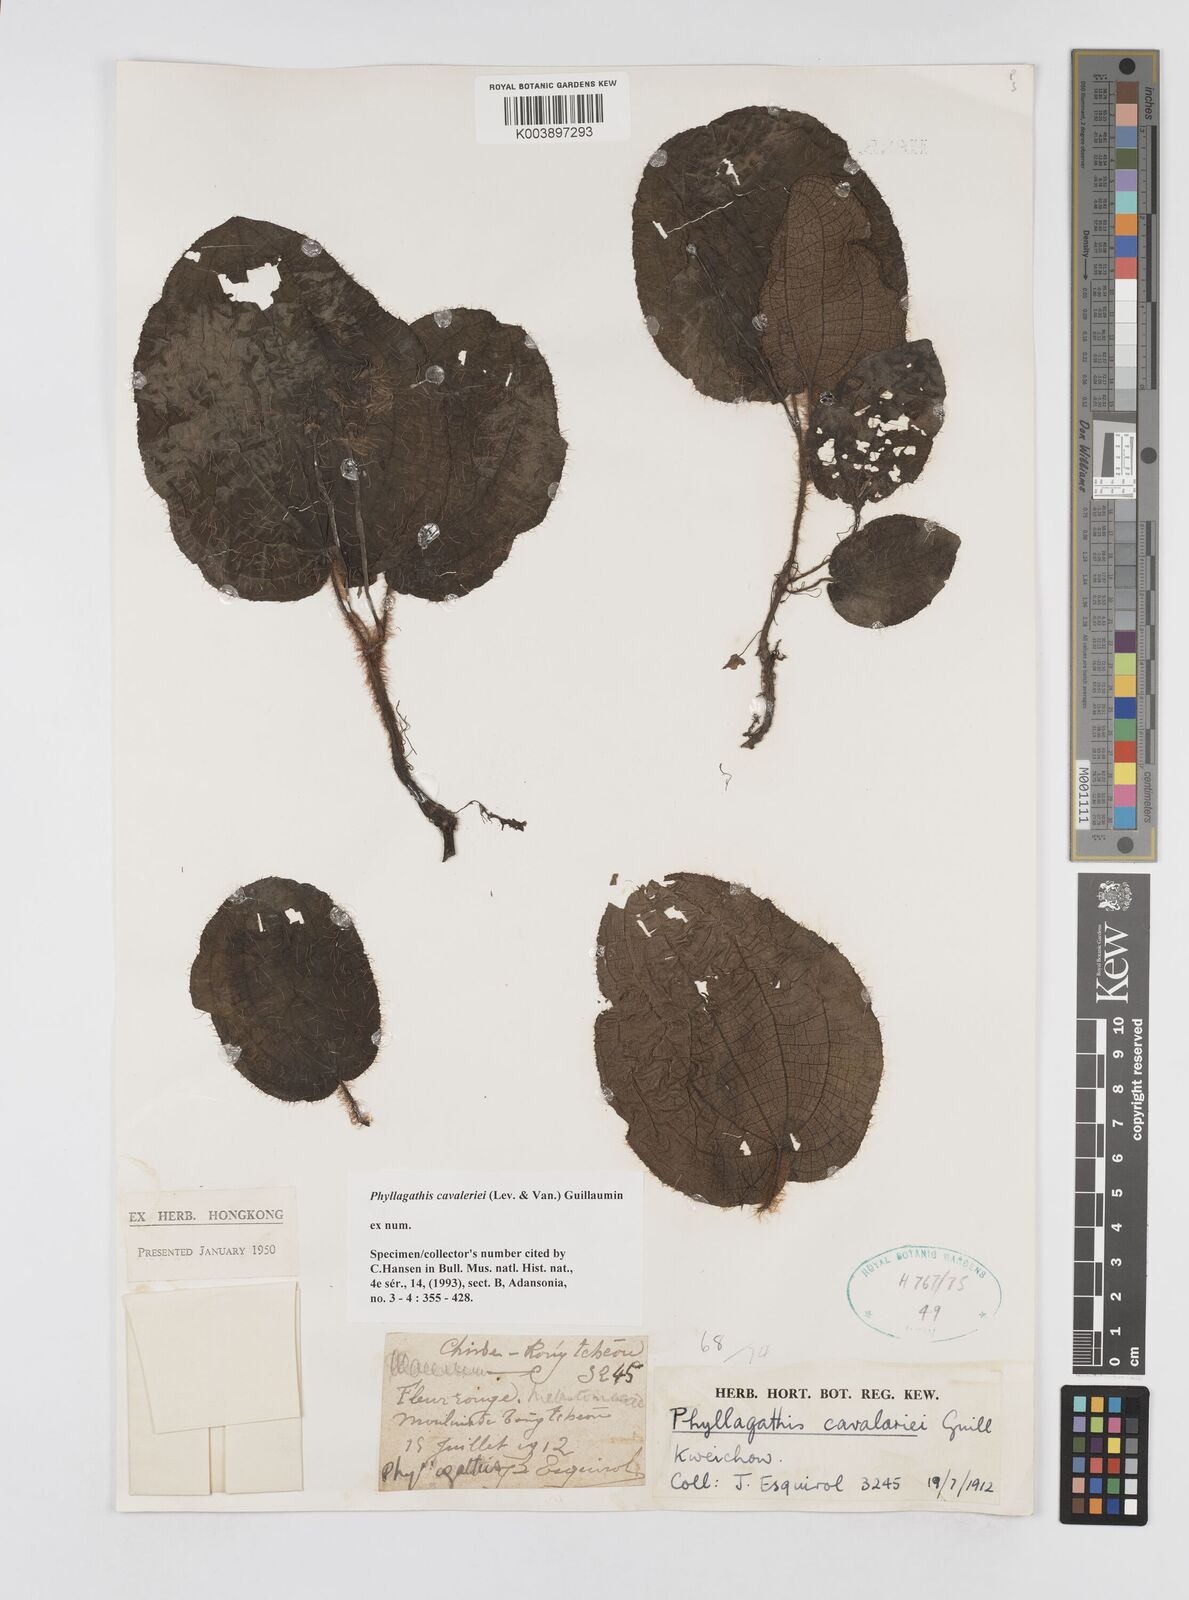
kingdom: Plantae
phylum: Tracheophyta
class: Magnoliopsida
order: Myrtales
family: Melastomataceae
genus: Phyllagathis
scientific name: Phyllagathis cavaleriei
